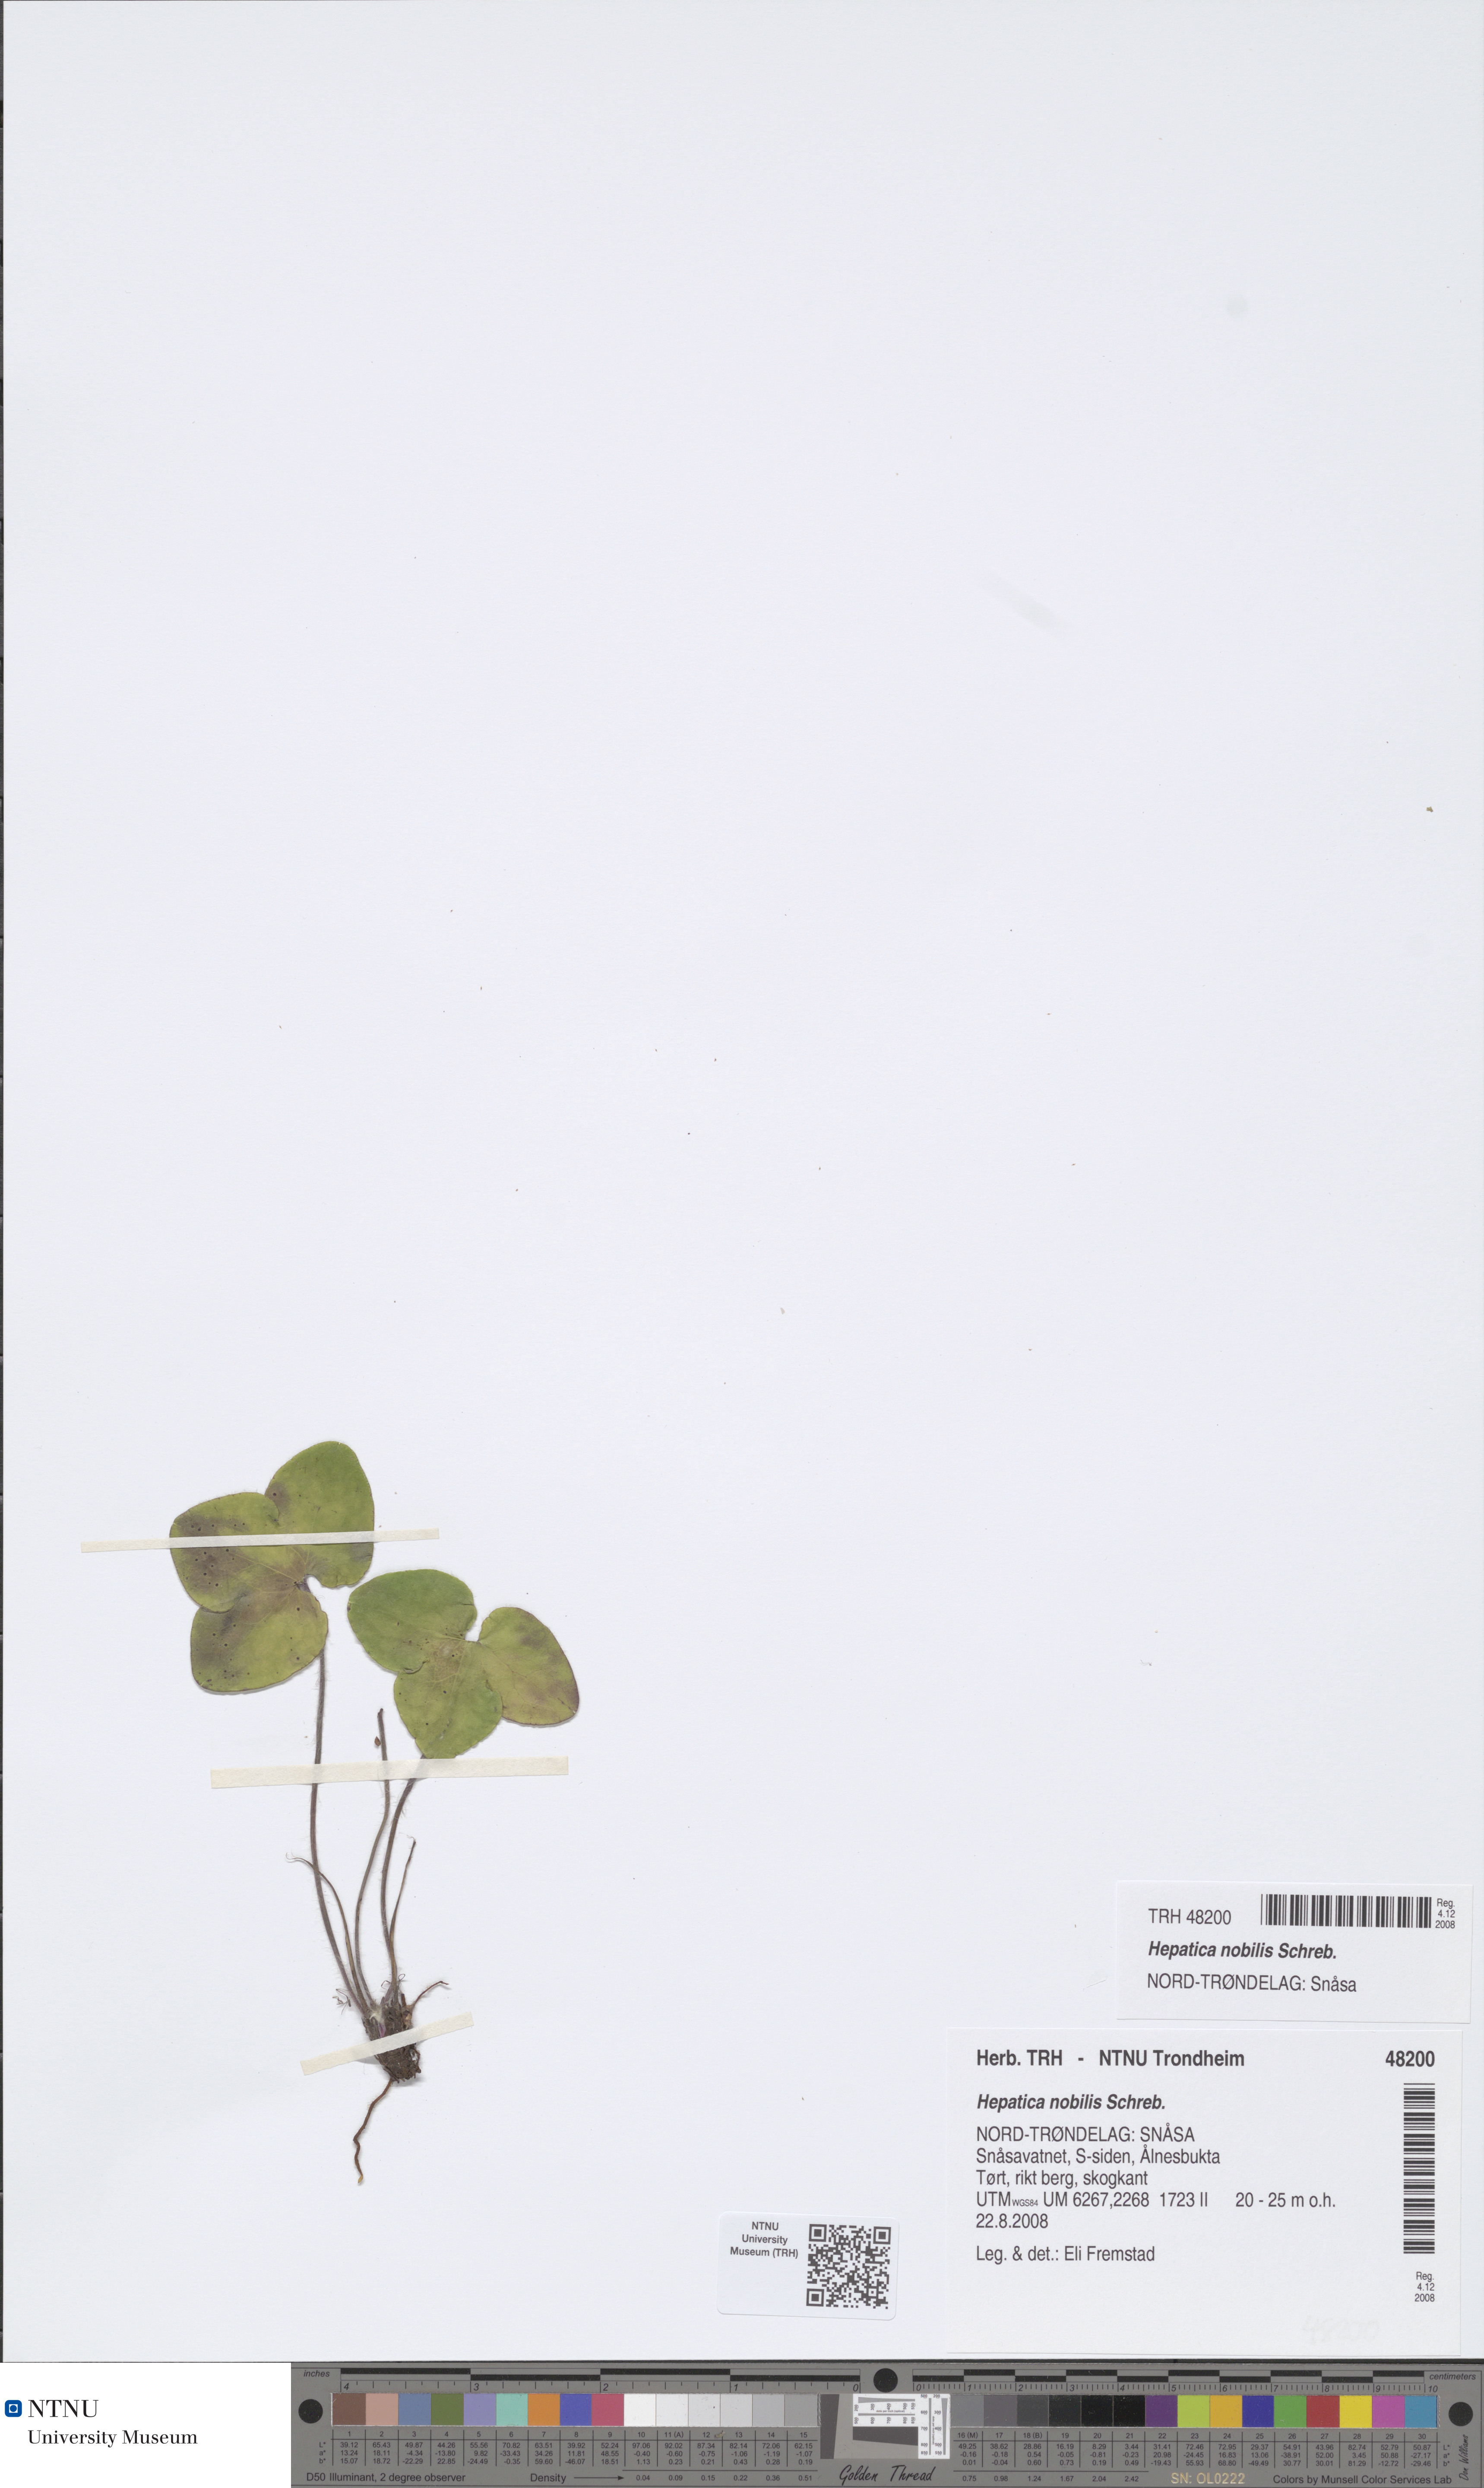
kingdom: Plantae
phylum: Tracheophyta
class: Magnoliopsida
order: Ranunculales
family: Ranunculaceae
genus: Hepatica
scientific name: Hepatica nobilis
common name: Liverleaf
